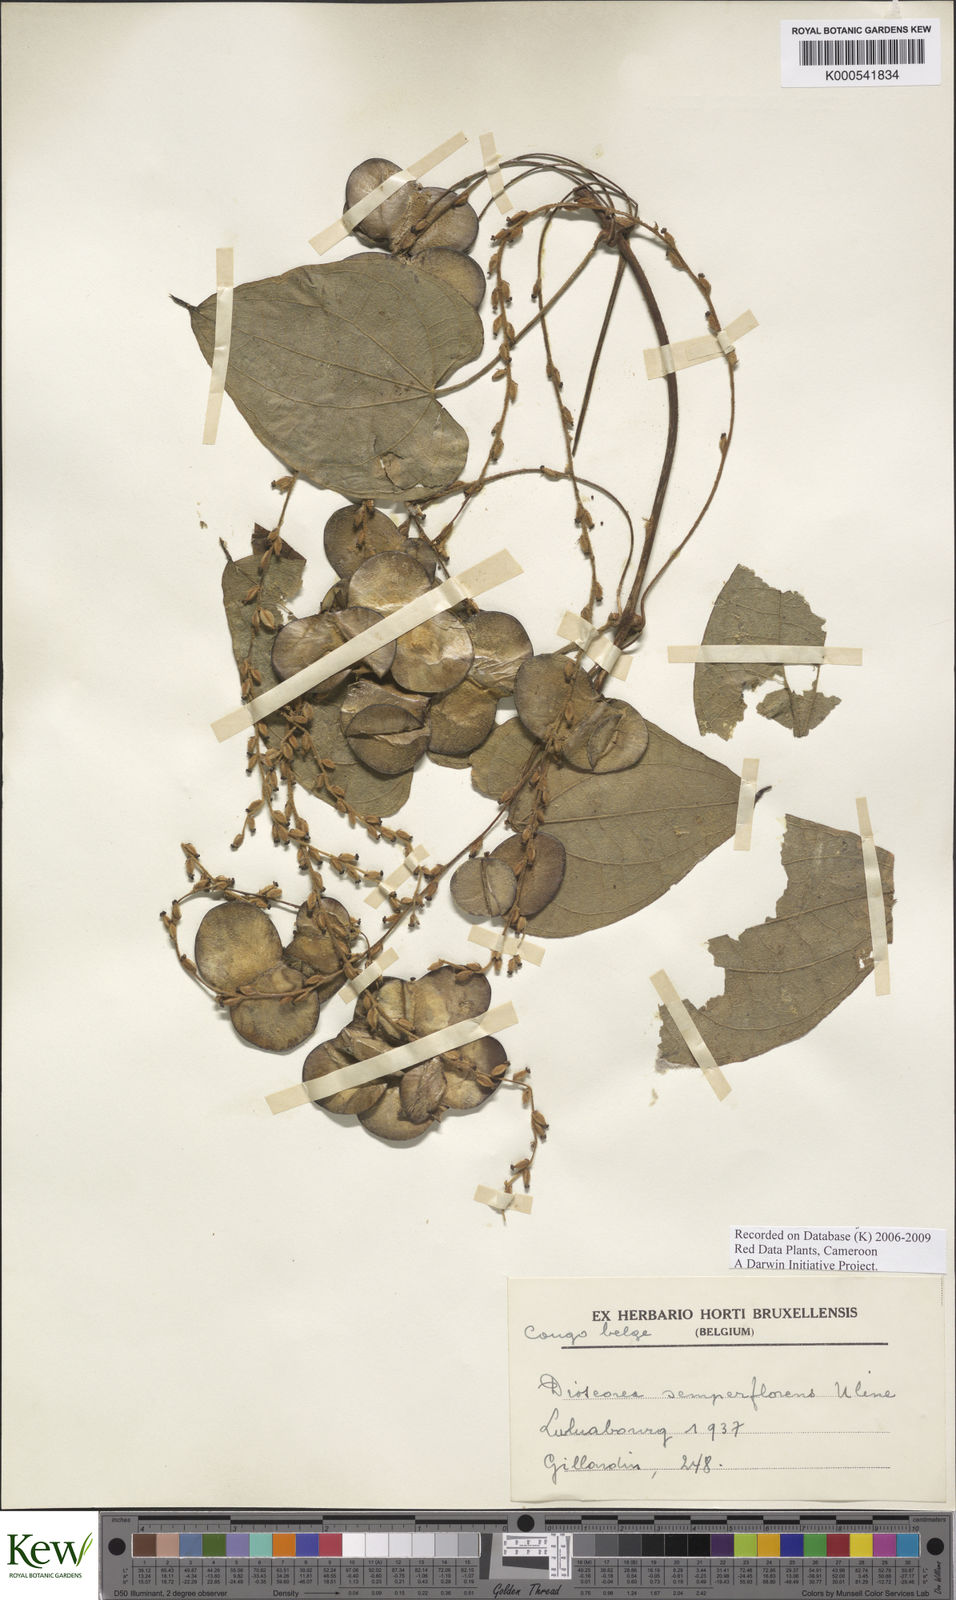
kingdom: Plantae
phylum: Tracheophyta
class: Liliopsida
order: Dioscoreales
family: Dioscoreaceae
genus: Dioscorea
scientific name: Dioscorea semperflorens
